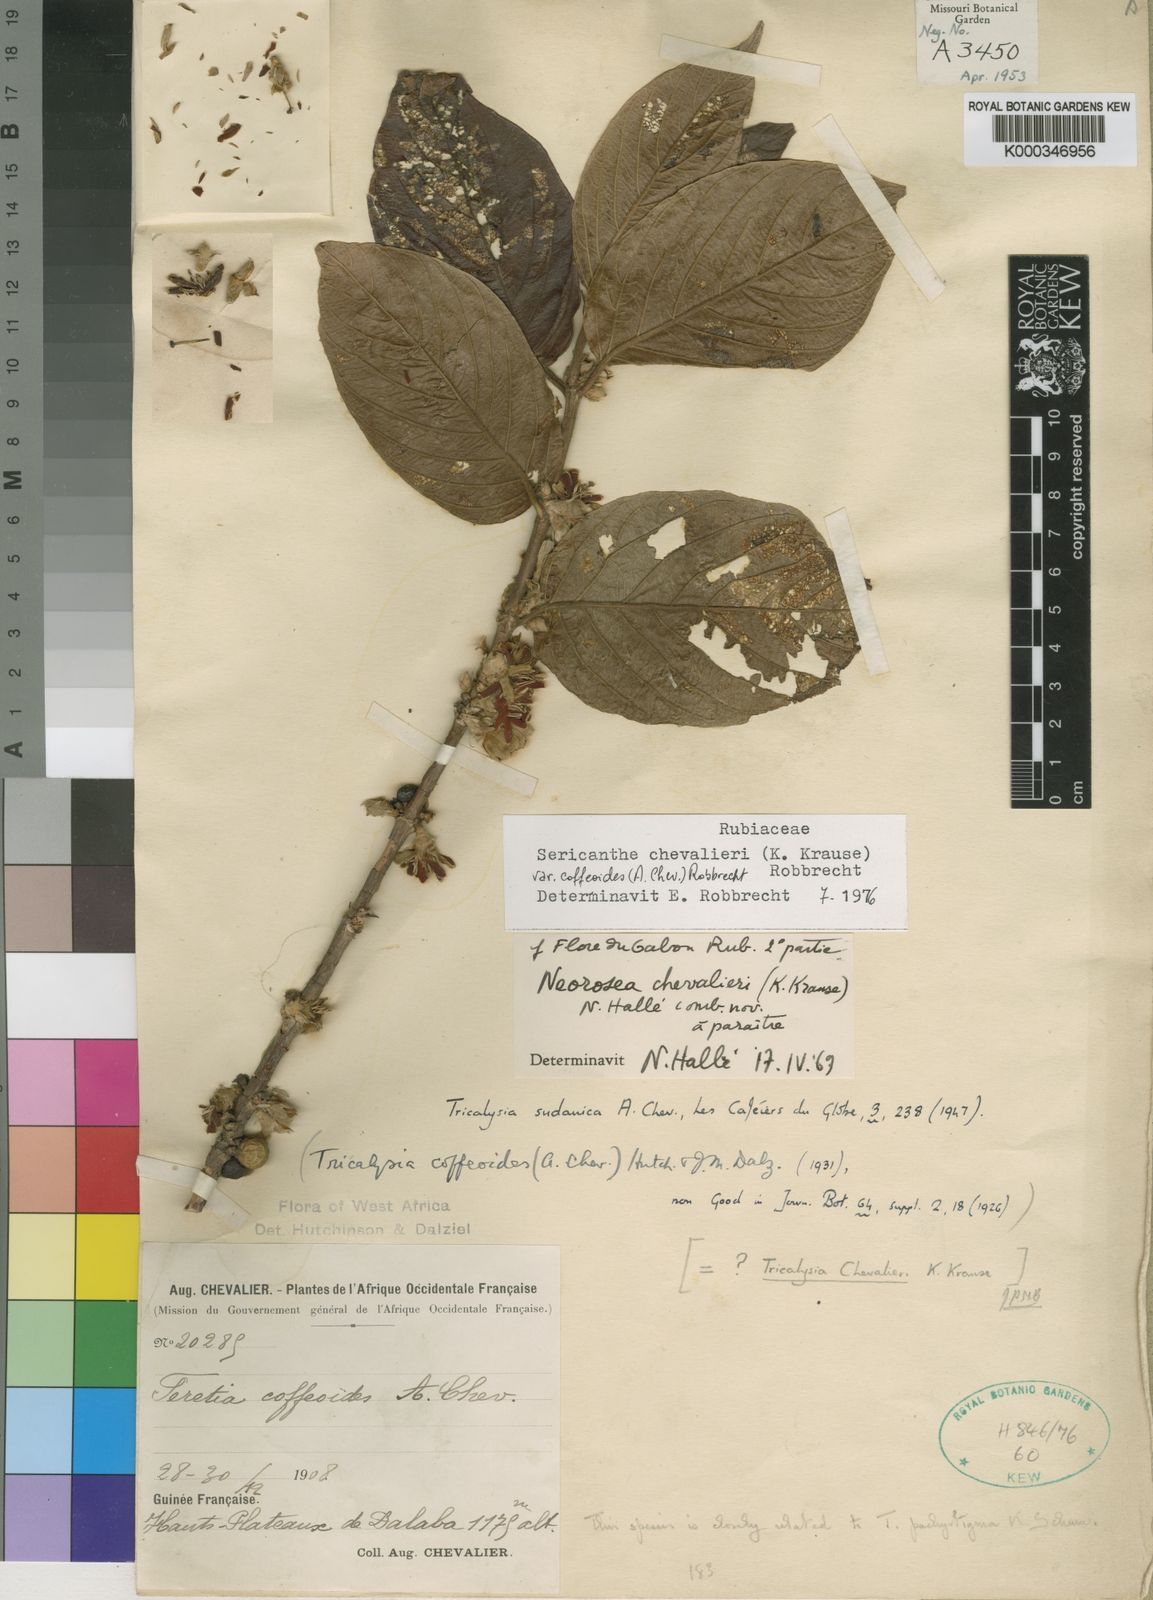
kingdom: Plantae
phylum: Tracheophyta
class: Magnoliopsida
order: Gentianales
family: Rubiaceae
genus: Sericanthe
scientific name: Sericanthe chevalieri
